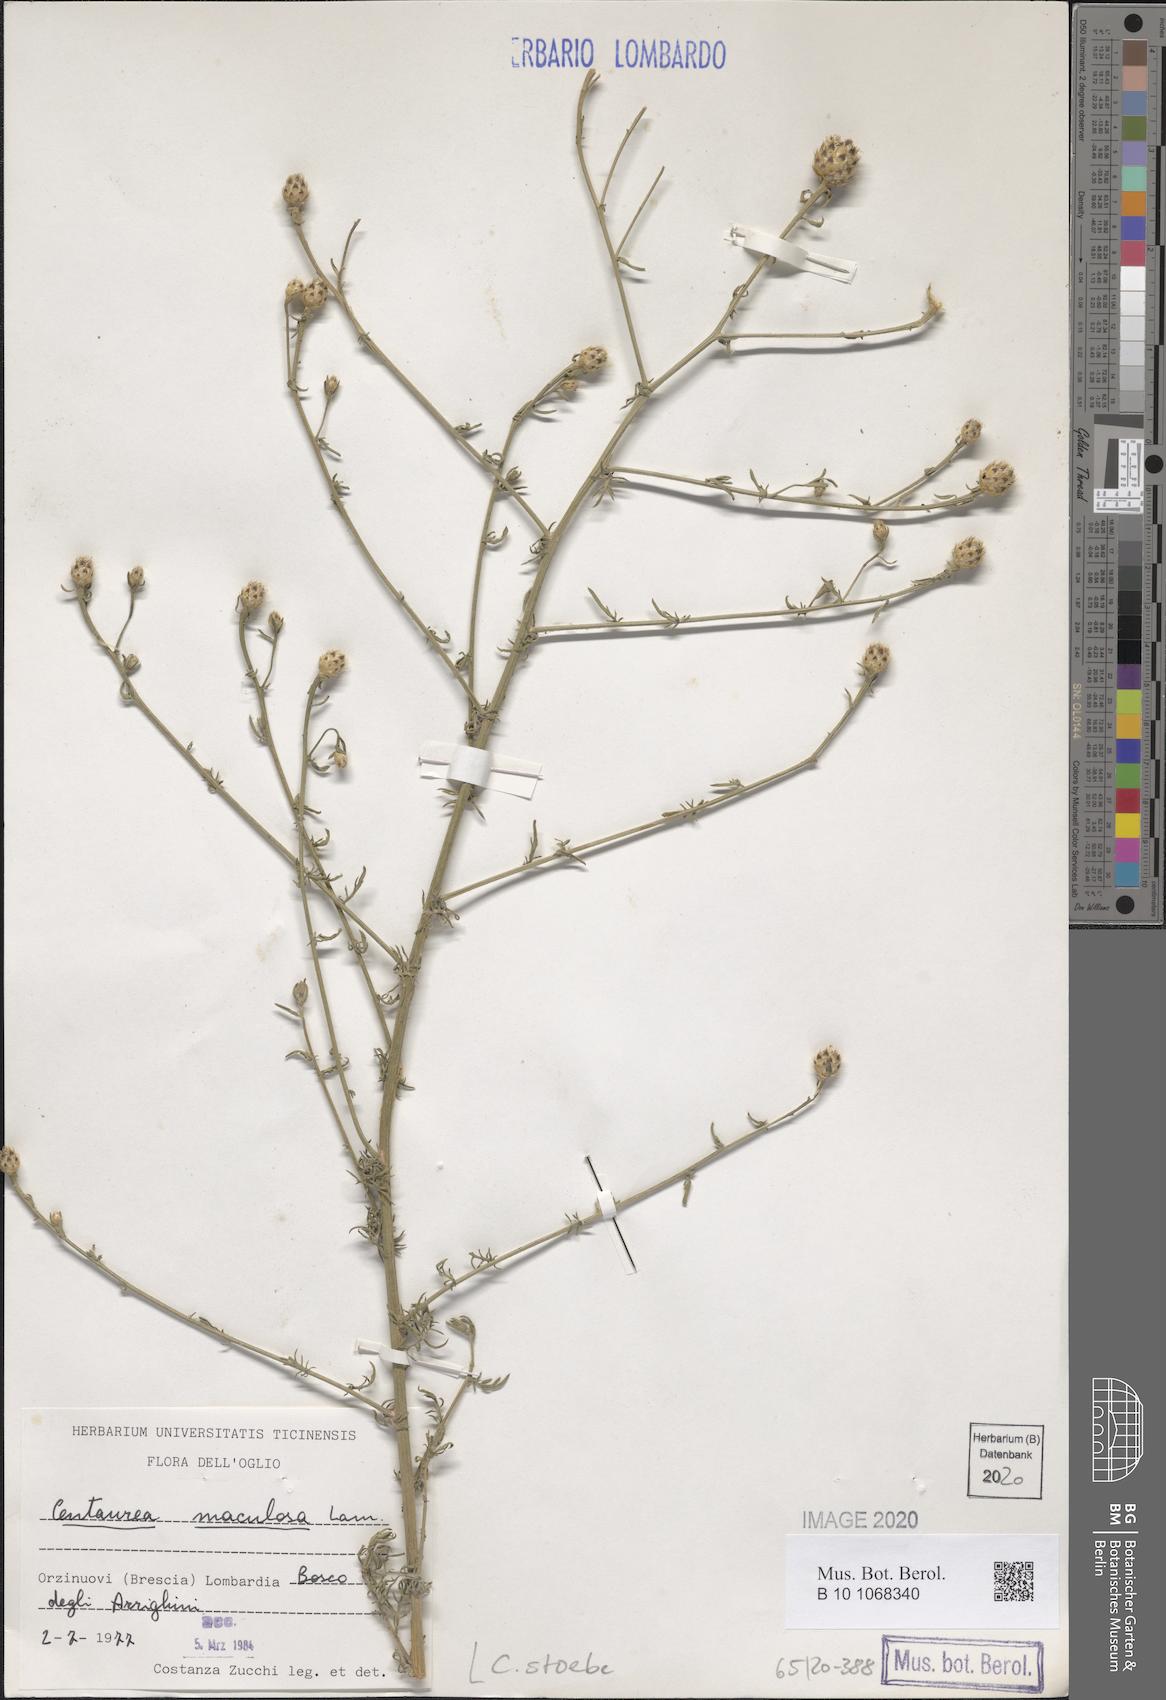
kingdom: Plantae
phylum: Tracheophyta
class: Magnoliopsida
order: Asterales
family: Asteraceae
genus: Centaurea
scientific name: Centaurea stoebe
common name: Spotted knapweed
